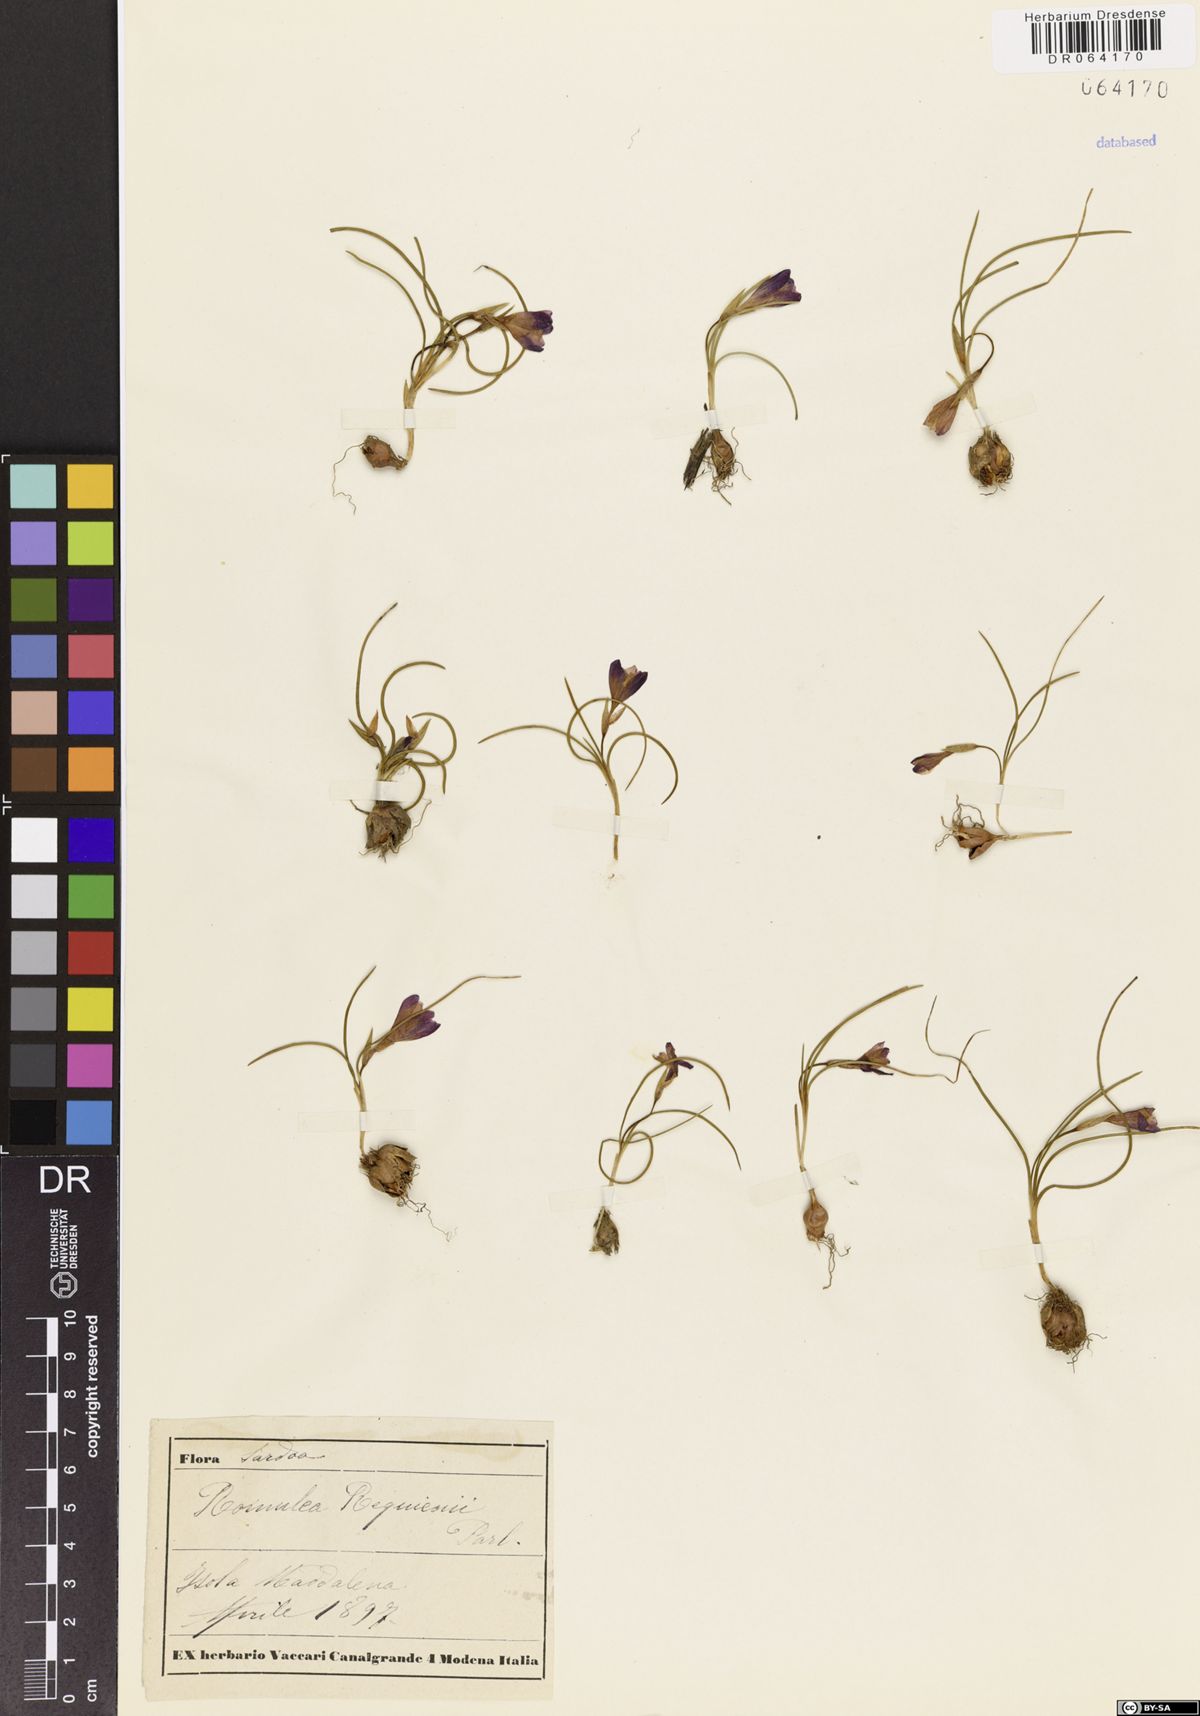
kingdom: Plantae
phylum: Tracheophyta
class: Liliopsida
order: Asparagales
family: Iridaceae
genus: Romulea
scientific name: Romulea requienii
